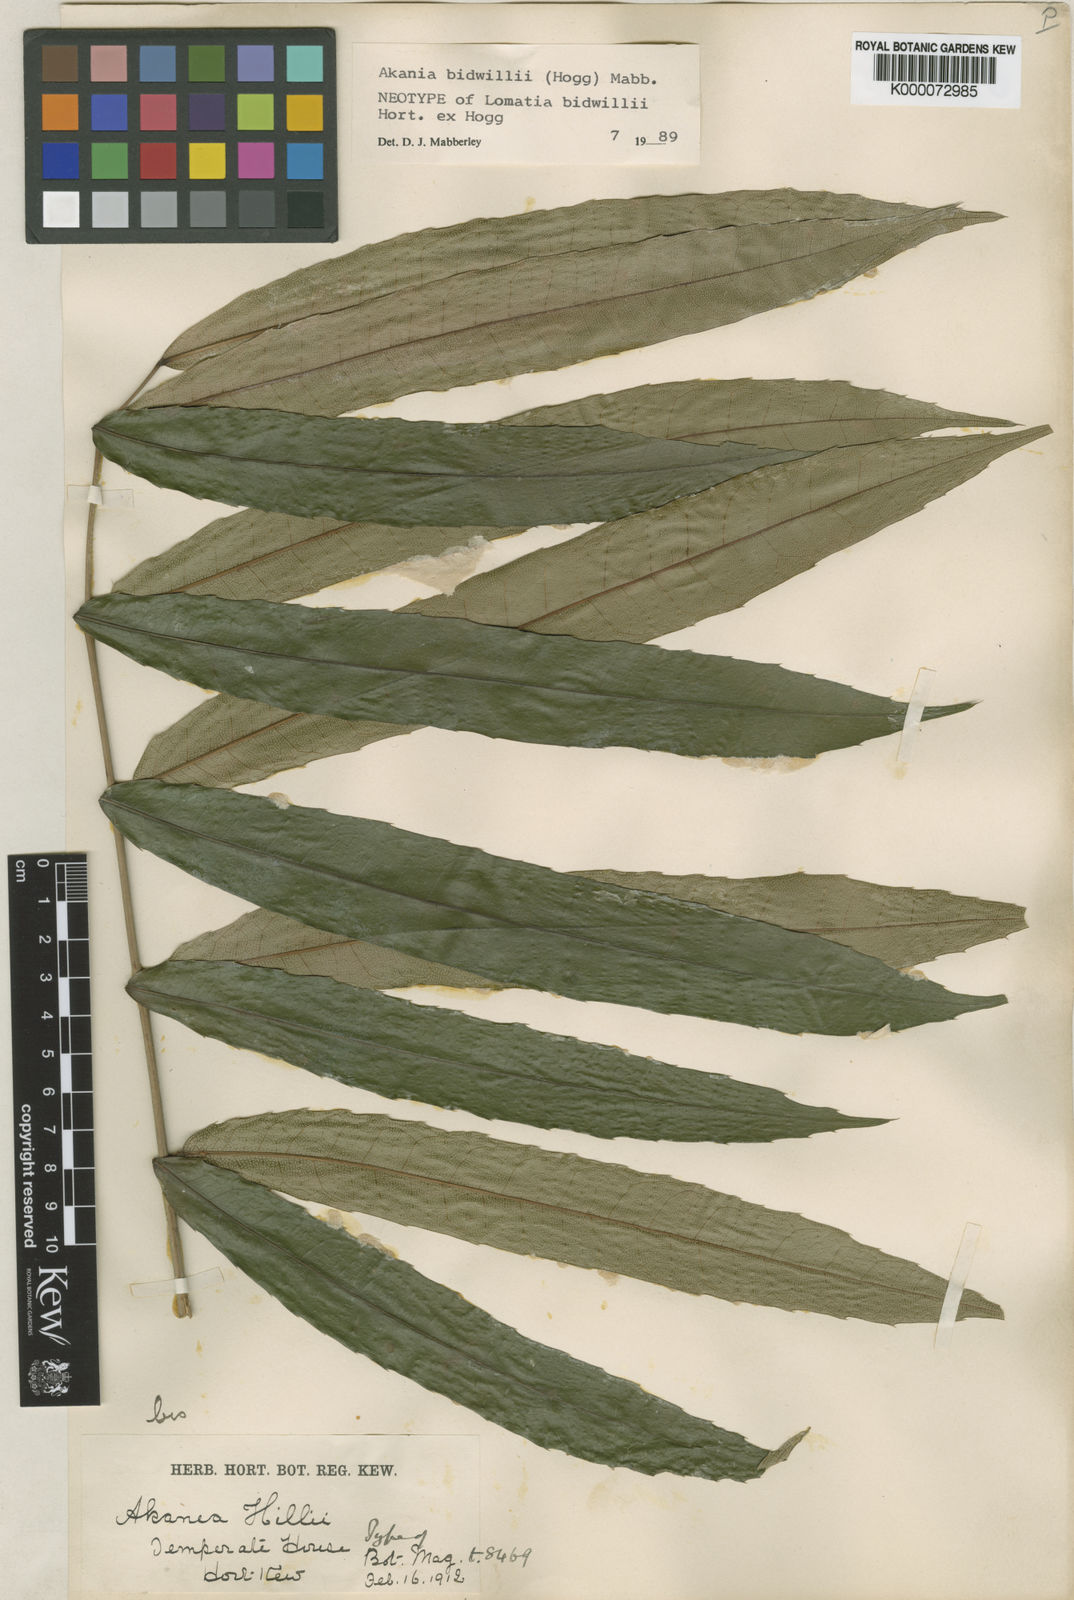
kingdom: Plantae
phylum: Tracheophyta
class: Magnoliopsida
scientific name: Magnoliopsida
